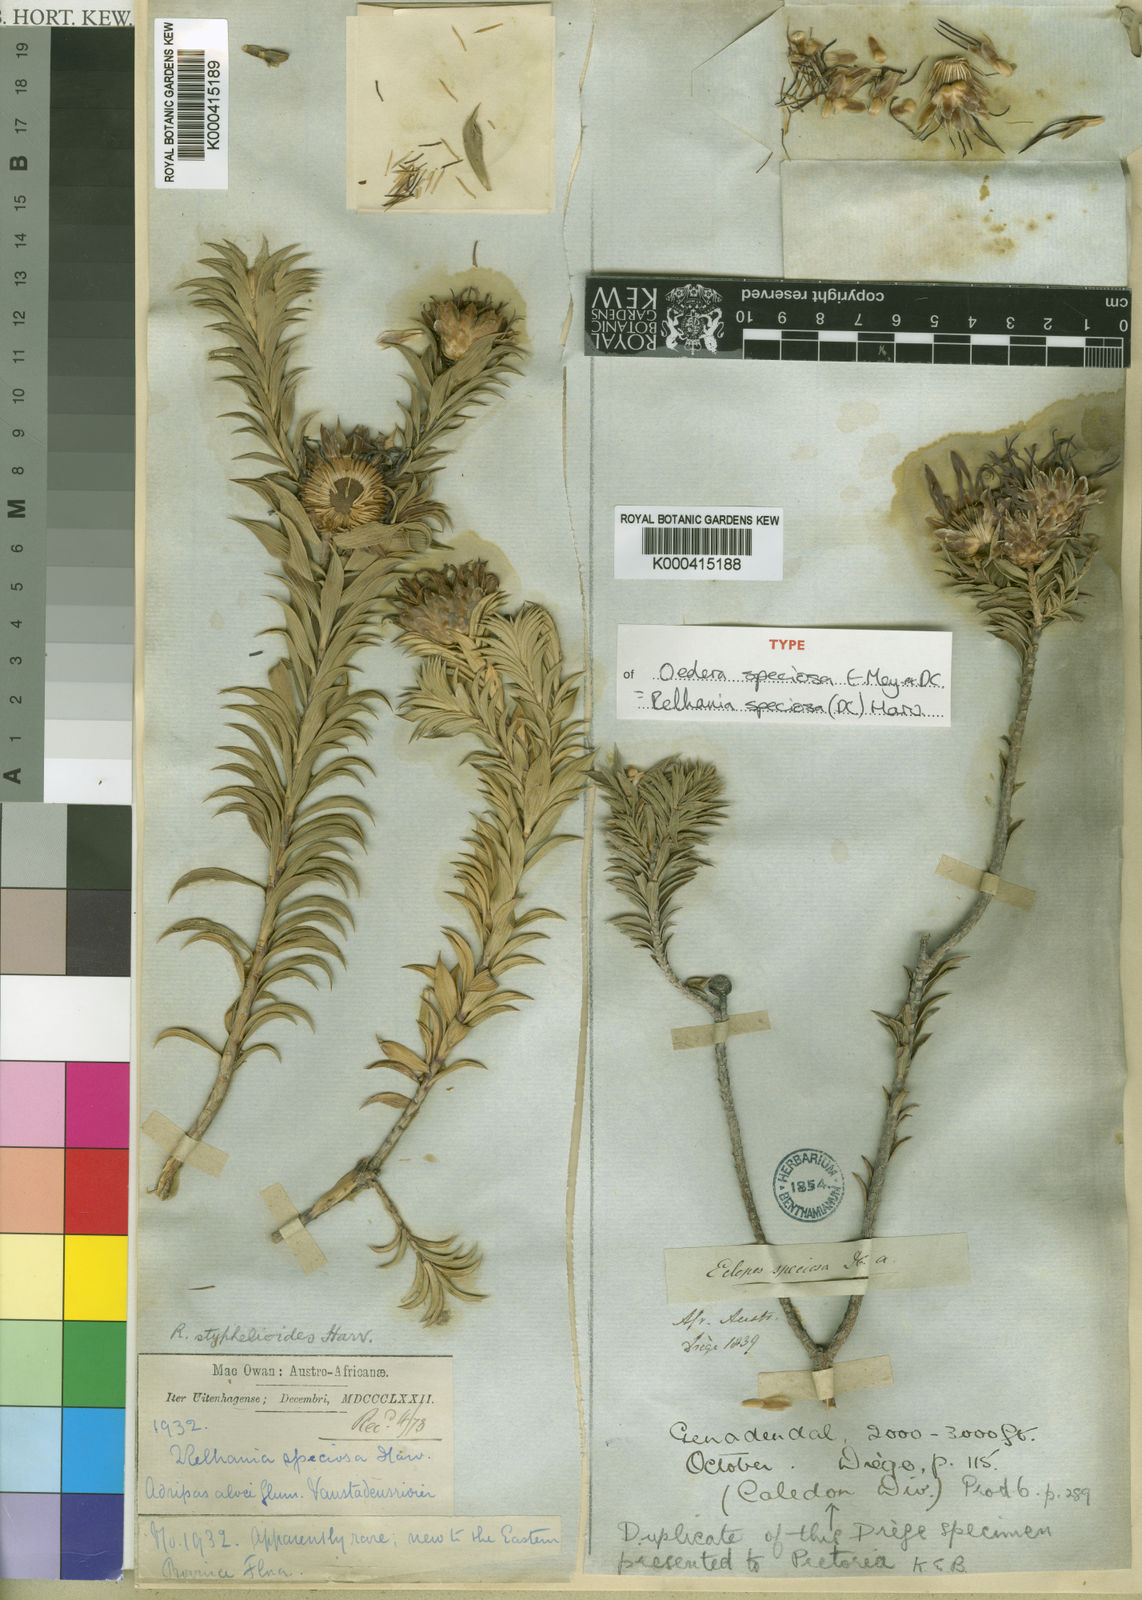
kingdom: Plantae
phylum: Tracheophyta
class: Magnoliopsida
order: Asterales
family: Asteraceae
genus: Oedera
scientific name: Oedera speciosa
